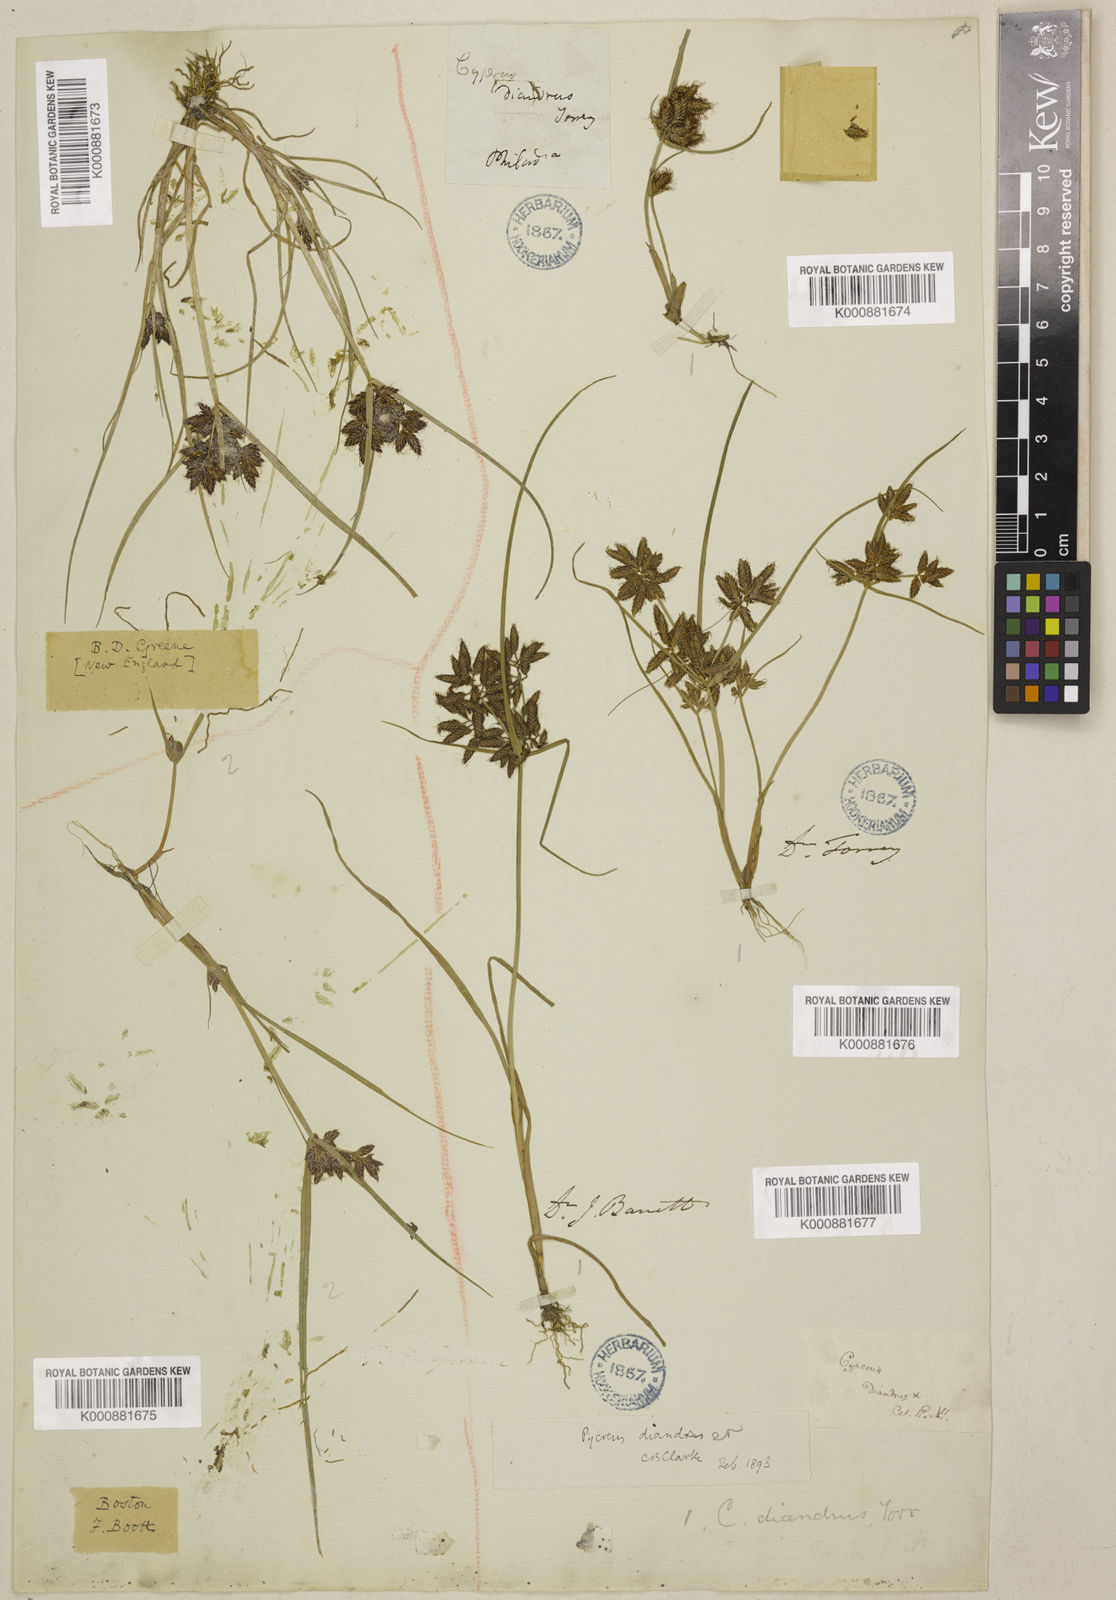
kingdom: Plantae
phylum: Tracheophyta
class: Liliopsida
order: Poales
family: Cyperaceae
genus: Cyperus
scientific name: Cyperus
